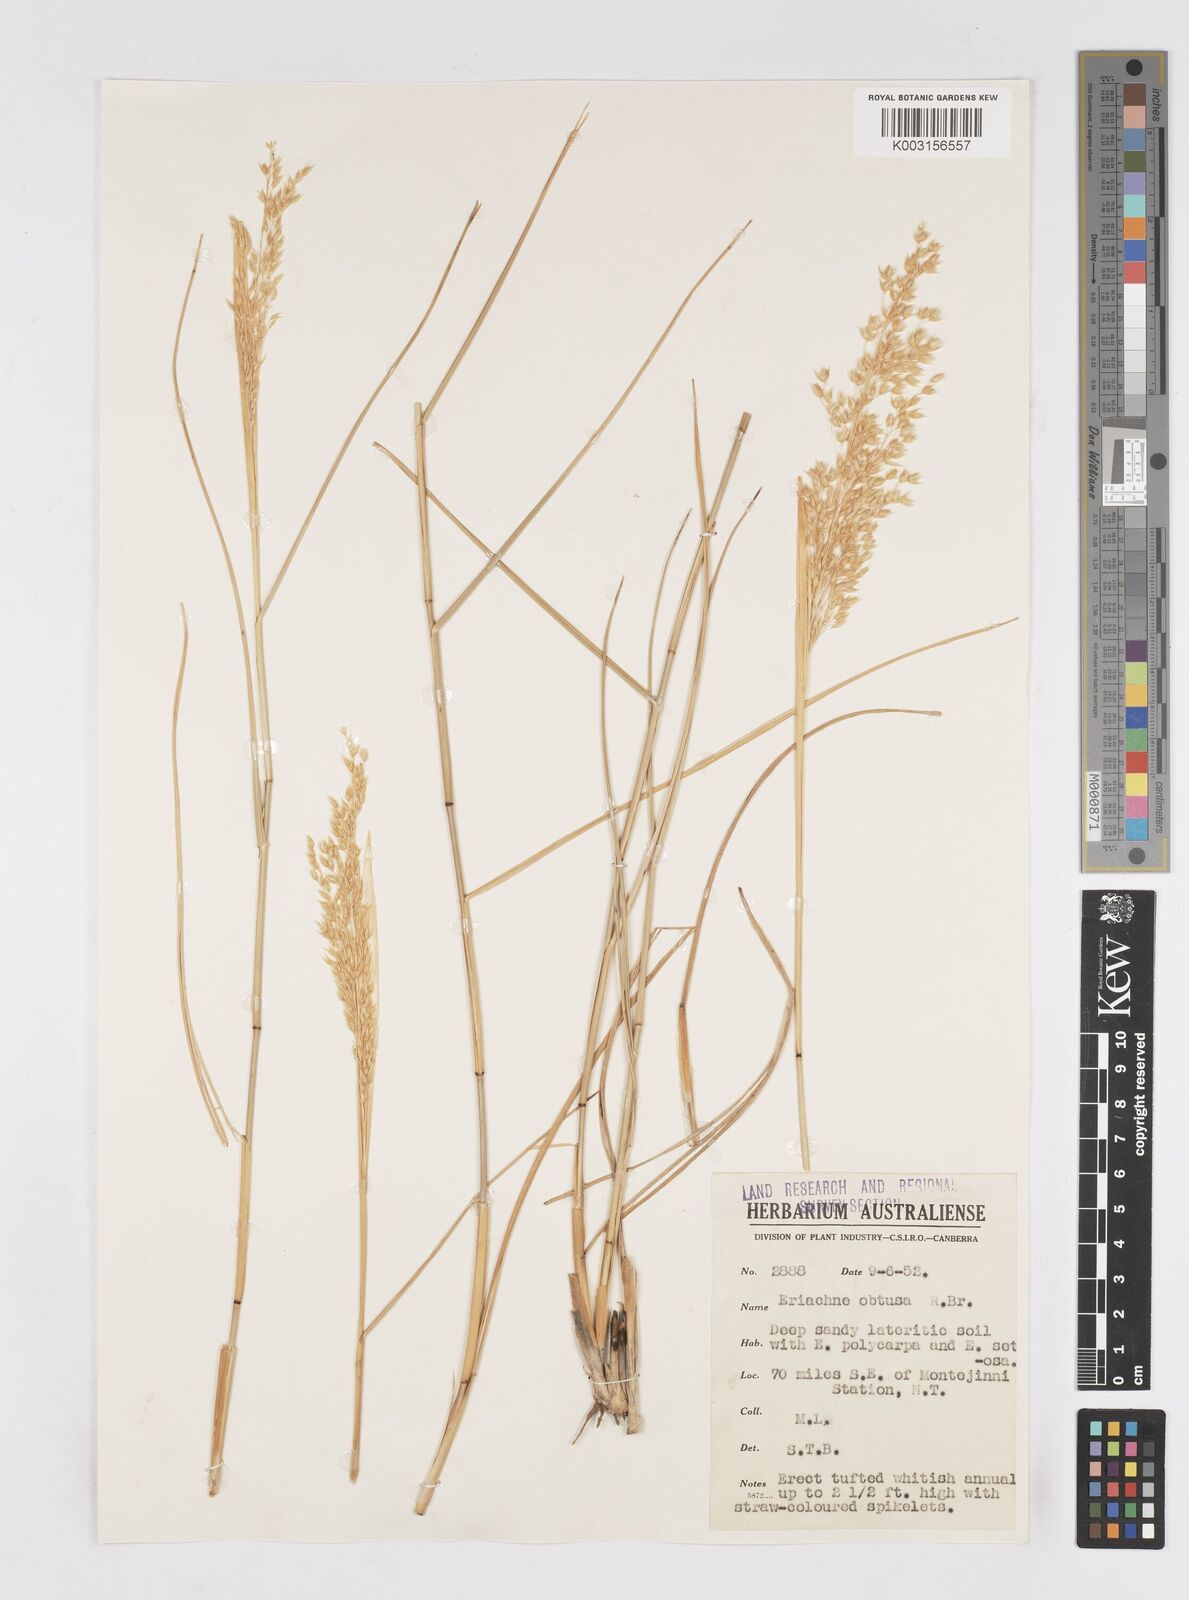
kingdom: Plantae
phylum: Tracheophyta
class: Liliopsida
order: Poales
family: Poaceae
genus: Eriachne
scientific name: Eriachne obtusa
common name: Northern wanderrie grass
